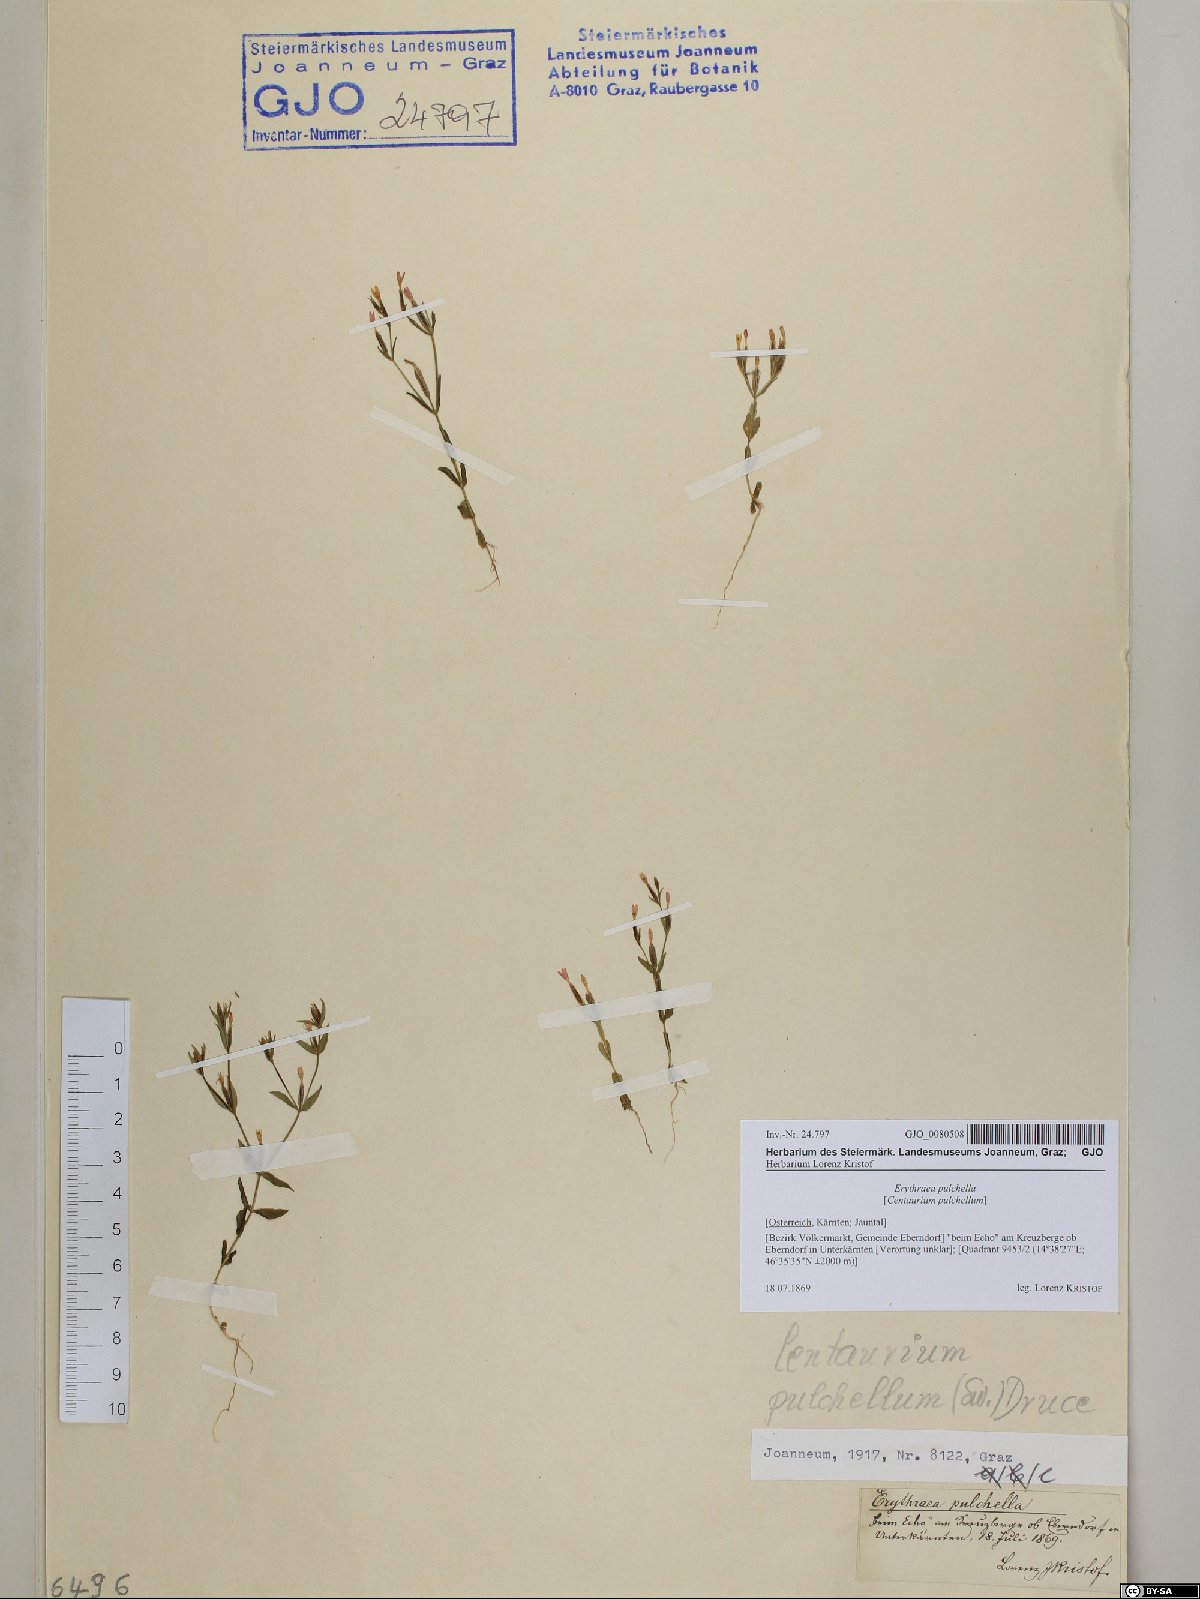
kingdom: Plantae
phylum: Tracheophyta
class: Magnoliopsida
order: Gentianales
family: Gentianaceae
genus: Centaurium
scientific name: Centaurium pulchellum
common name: Lesser centaury
